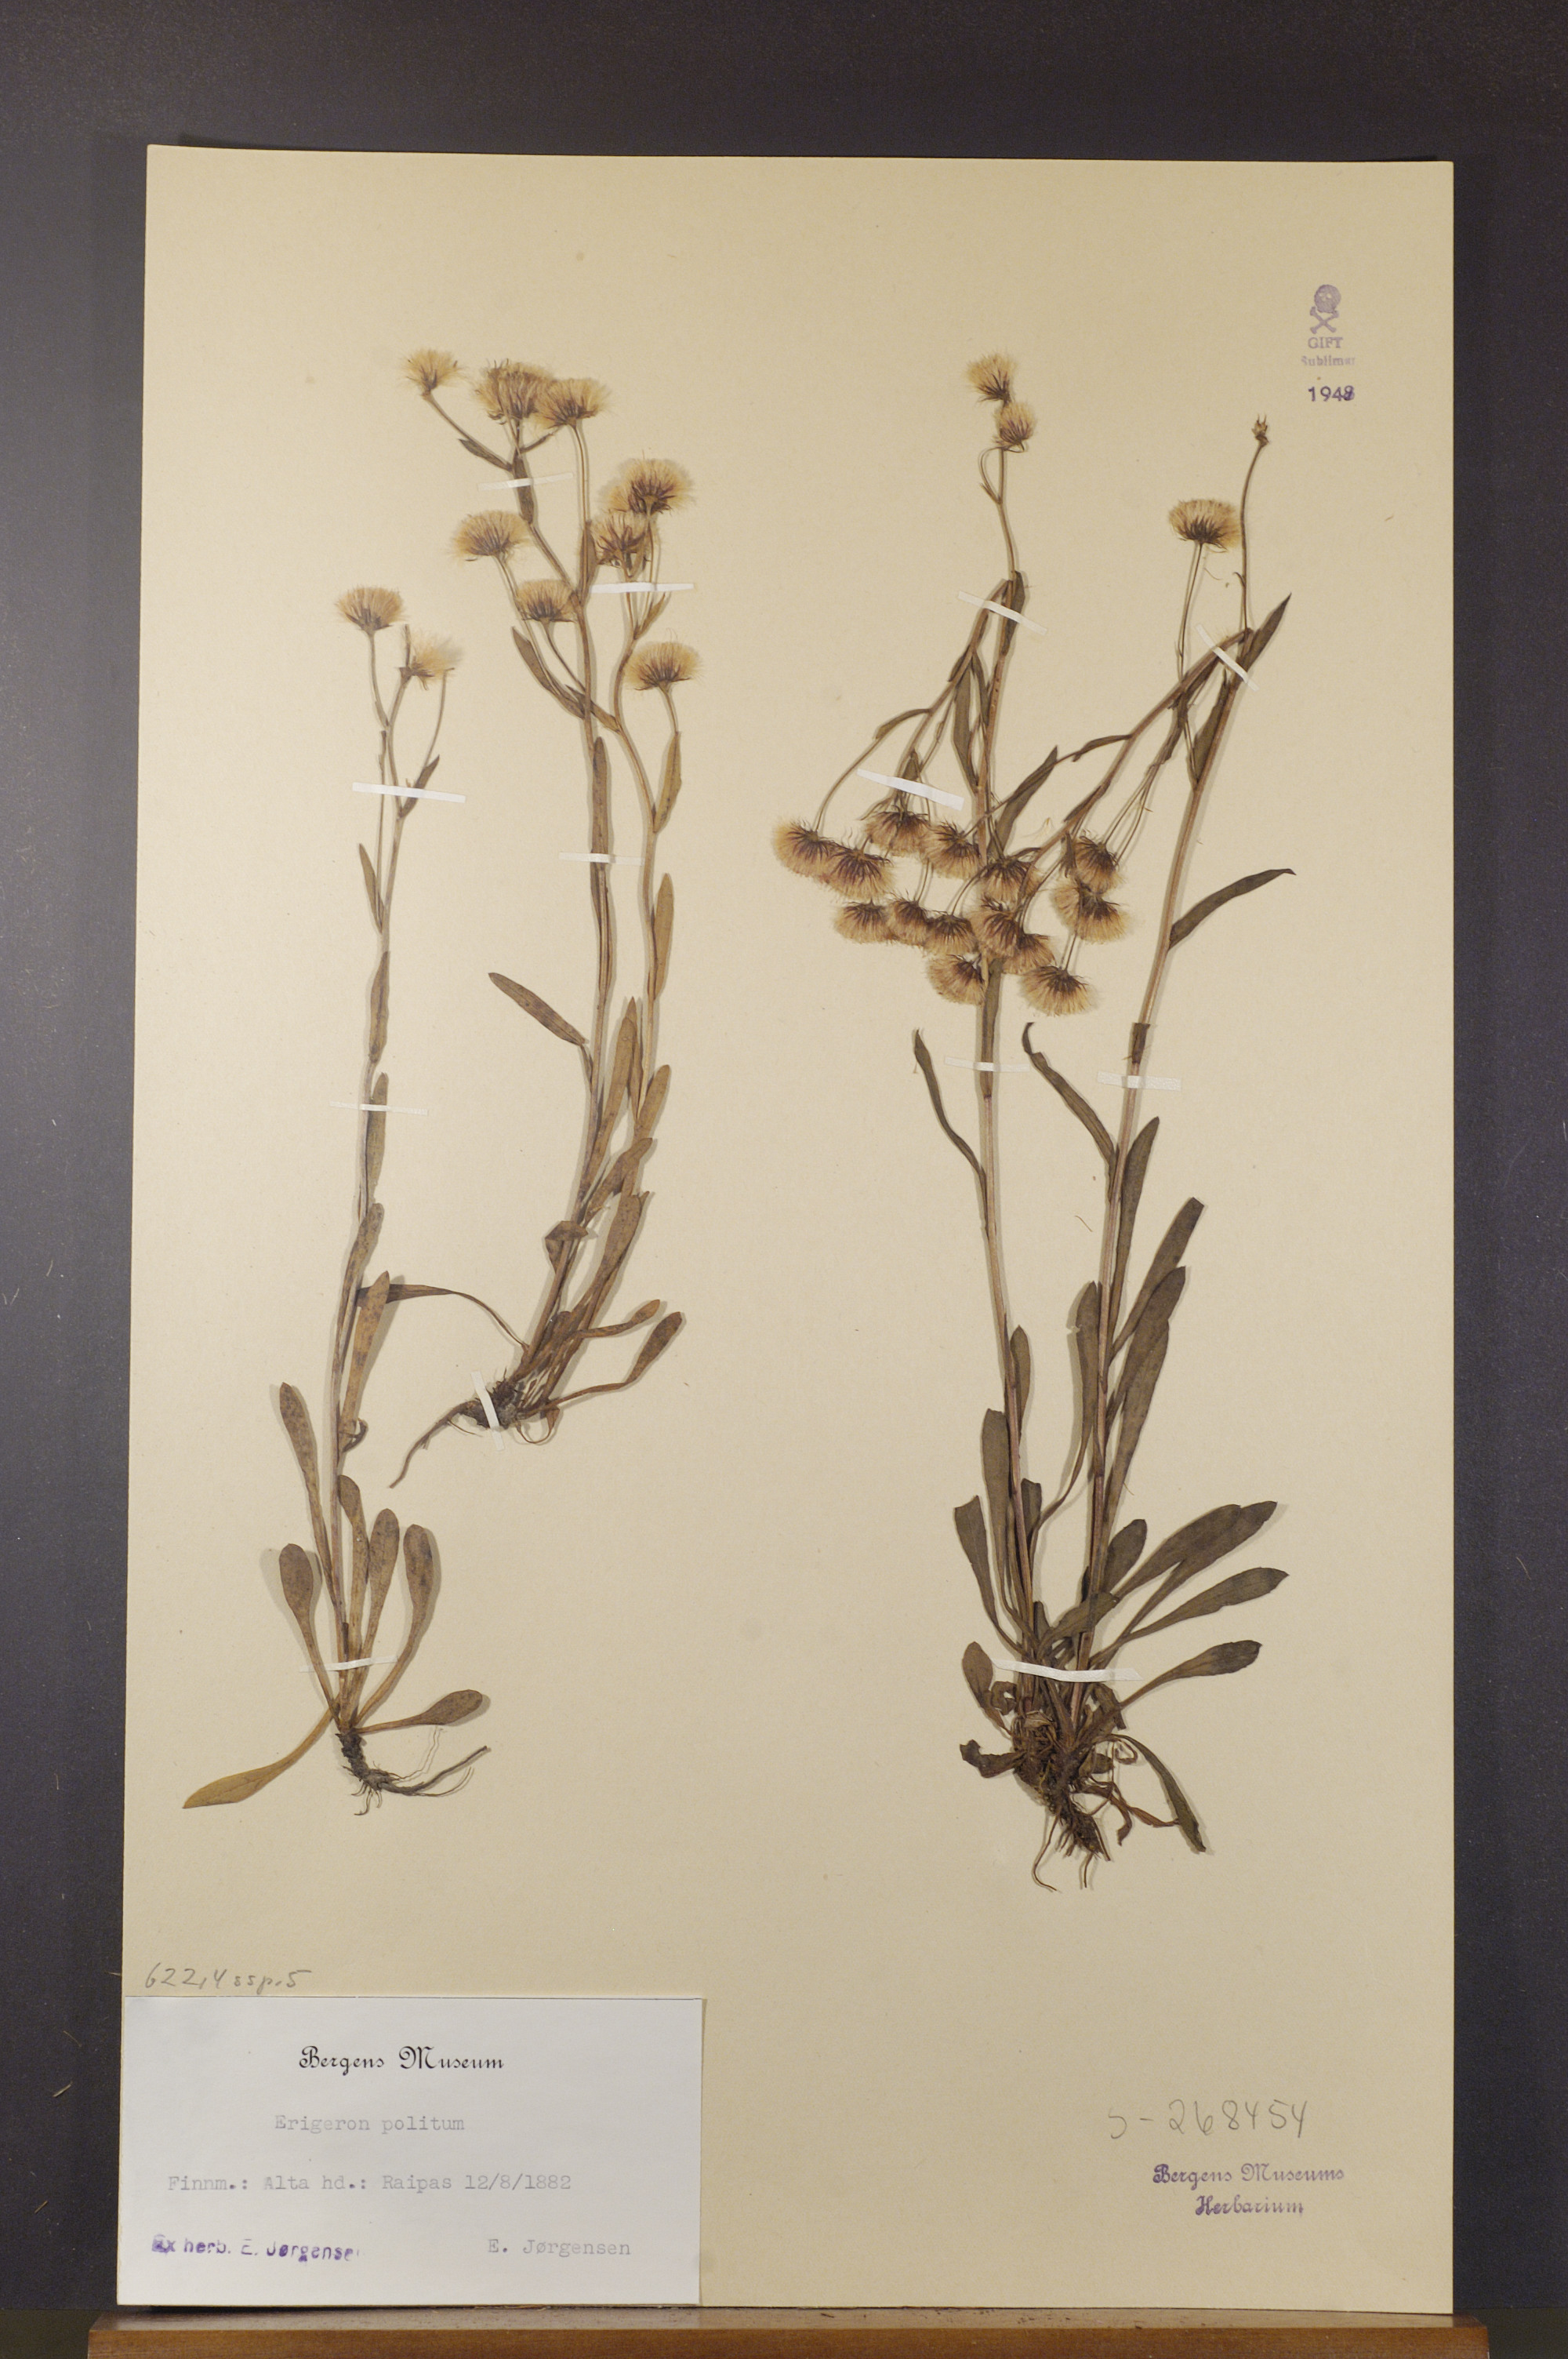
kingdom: Plantae
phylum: Tracheophyta
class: Magnoliopsida
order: Asterales
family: Asteraceae
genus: Erigeron
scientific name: Erigeron politus
